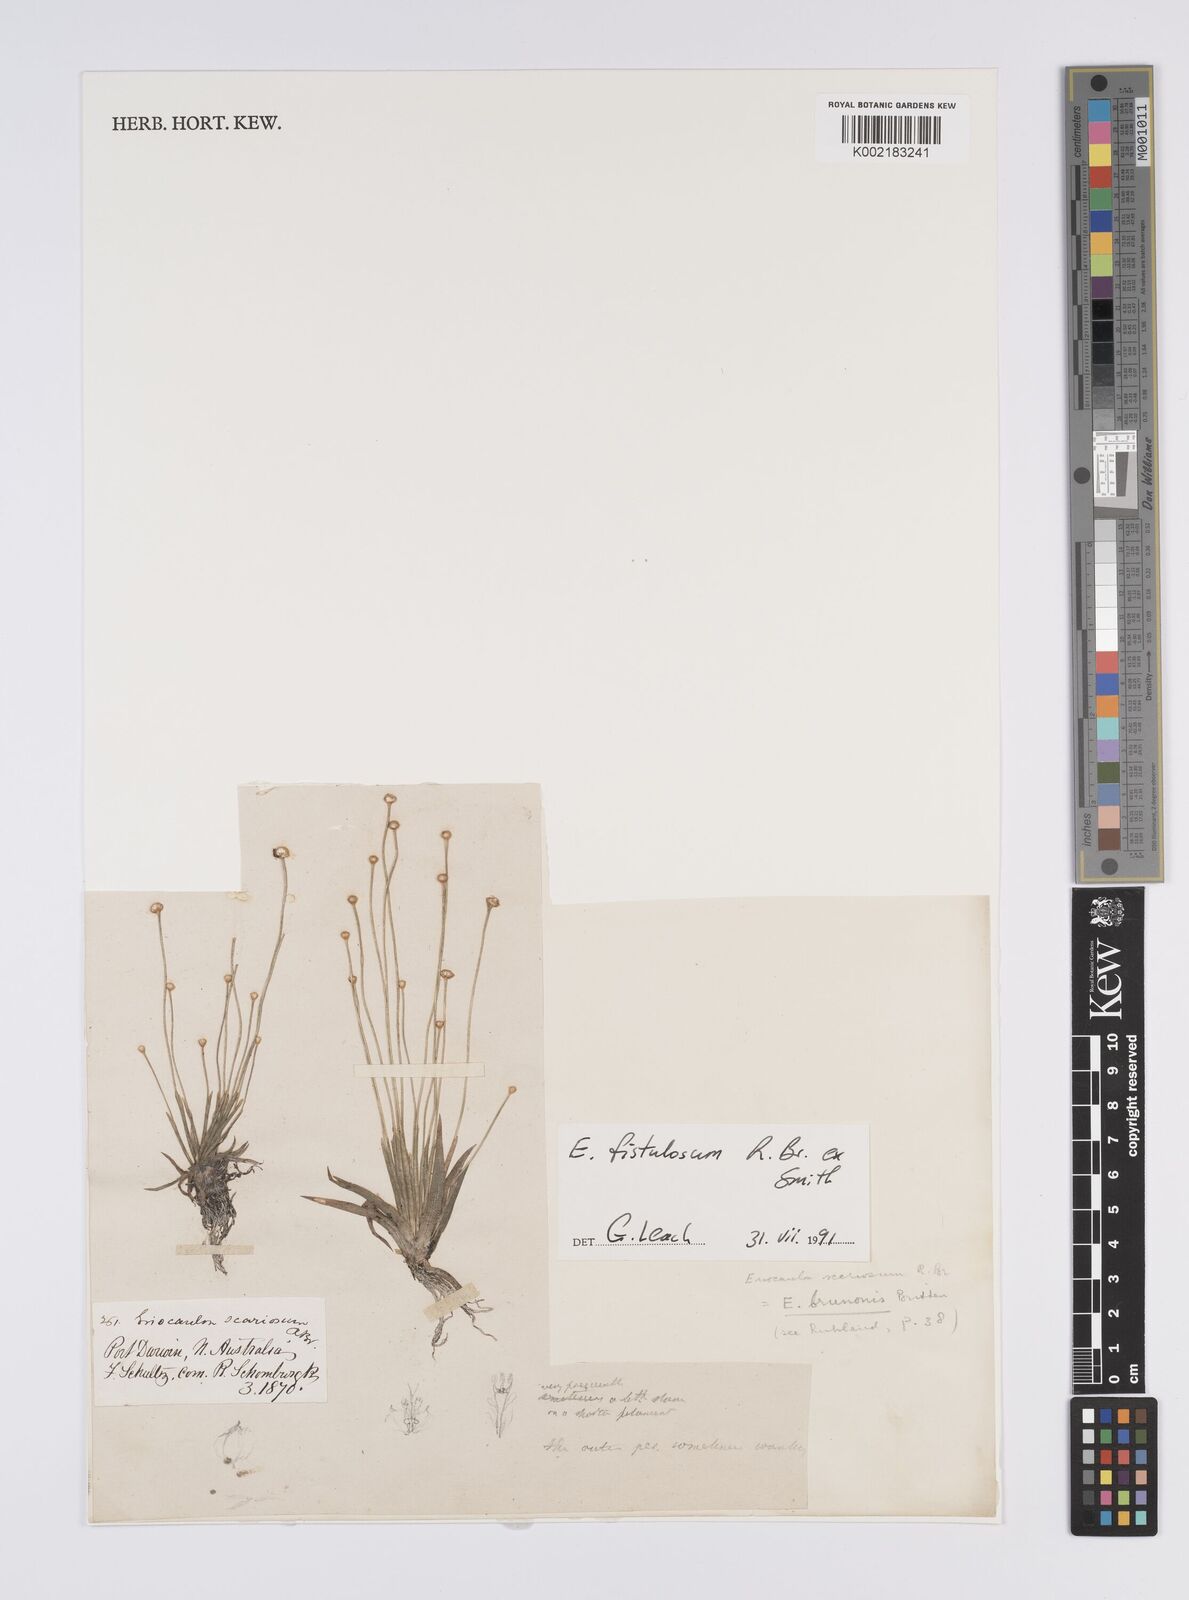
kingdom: Plantae
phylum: Tracheophyta
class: Liliopsida
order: Poales
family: Eriocaulaceae
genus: Eriocaulon
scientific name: Eriocaulon fistulosum
